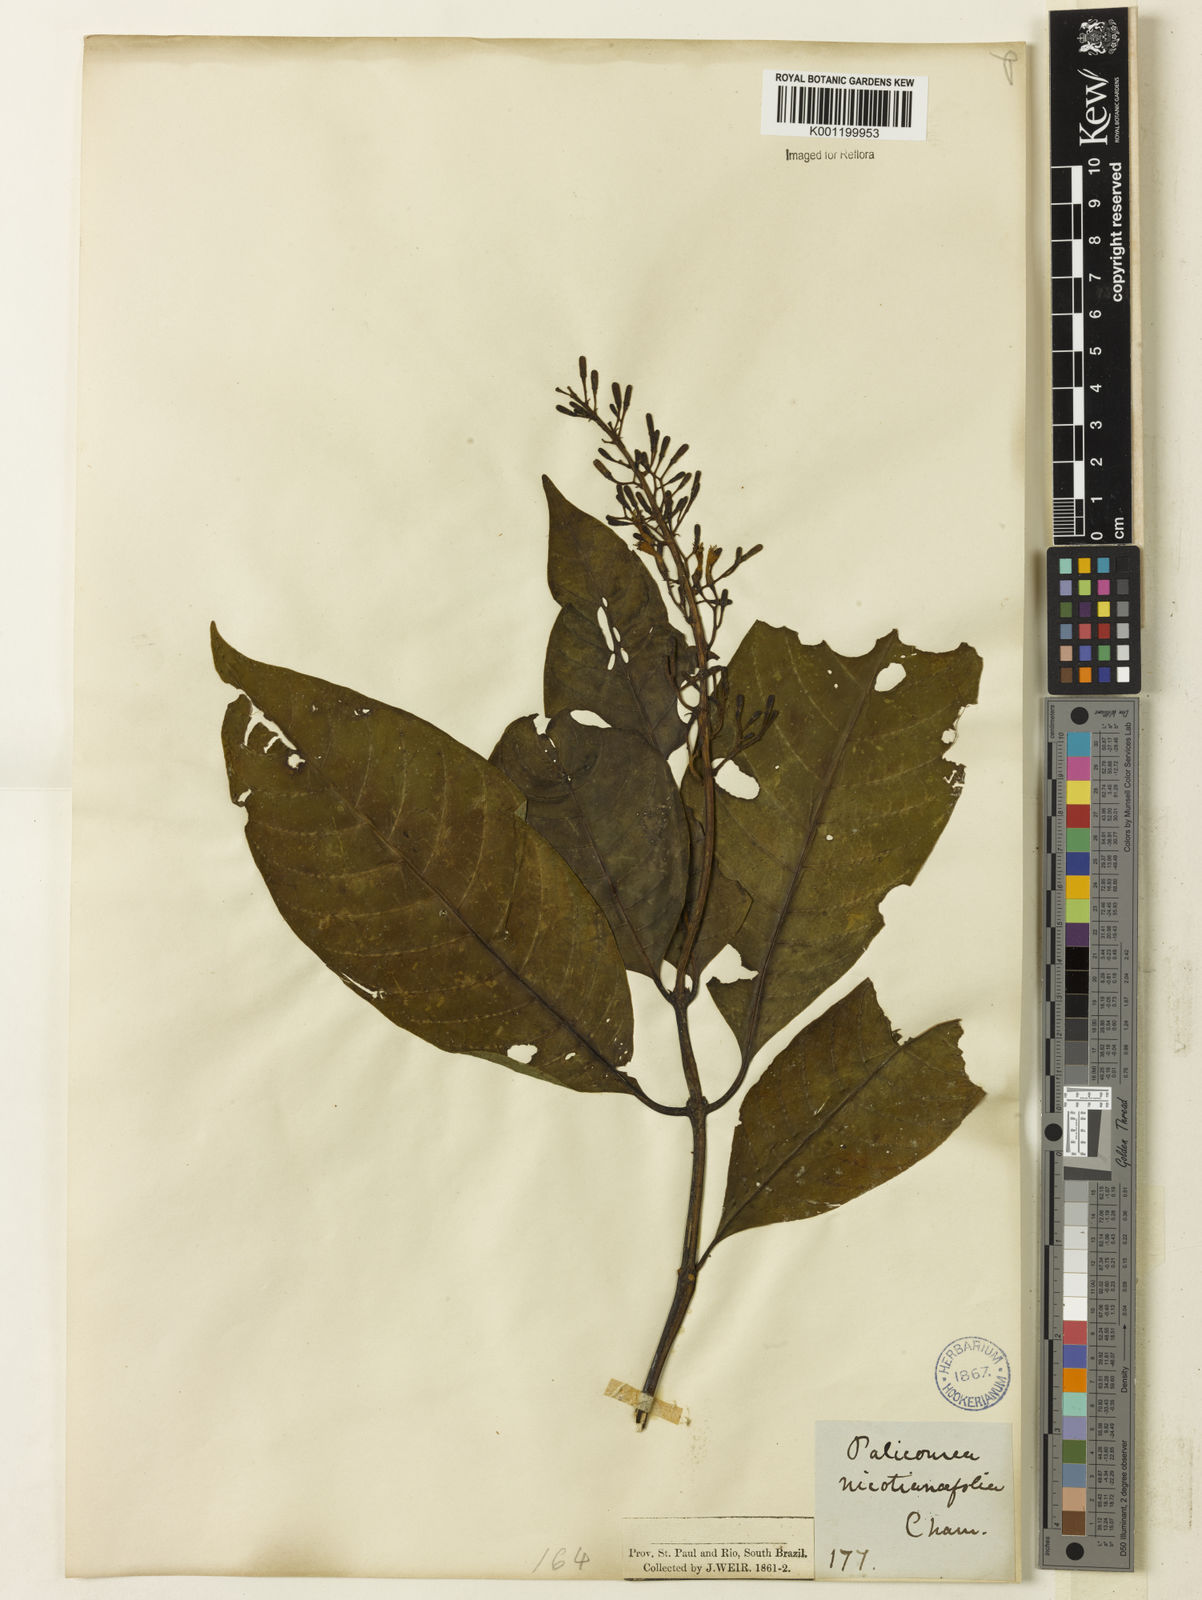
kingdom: Plantae
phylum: Tracheophyta
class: Magnoliopsida
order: Gentianales
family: Rubiaceae
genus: Palicourea
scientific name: Palicourea macrobotrys
